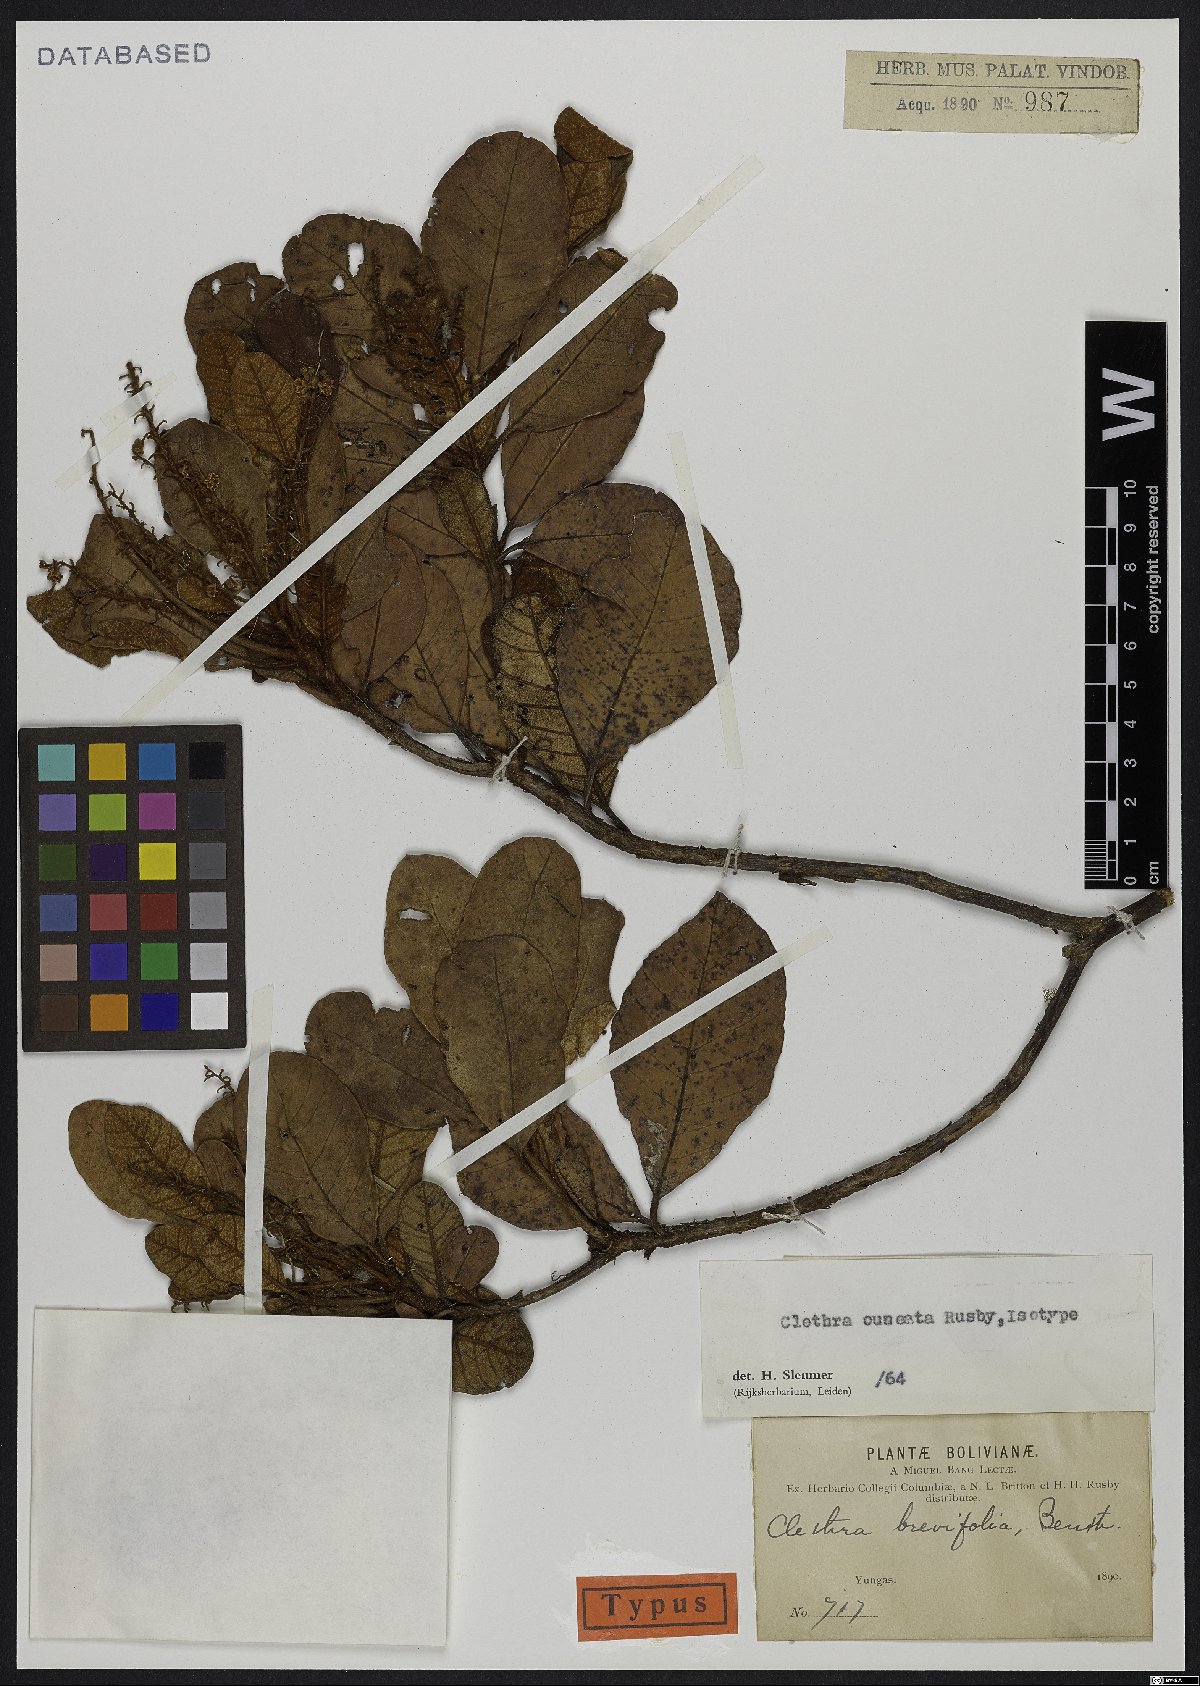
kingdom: Plantae
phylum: Tracheophyta
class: Magnoliopsida
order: Ericales
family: Clethraceae
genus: Clethra
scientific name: Clethra cuneata
